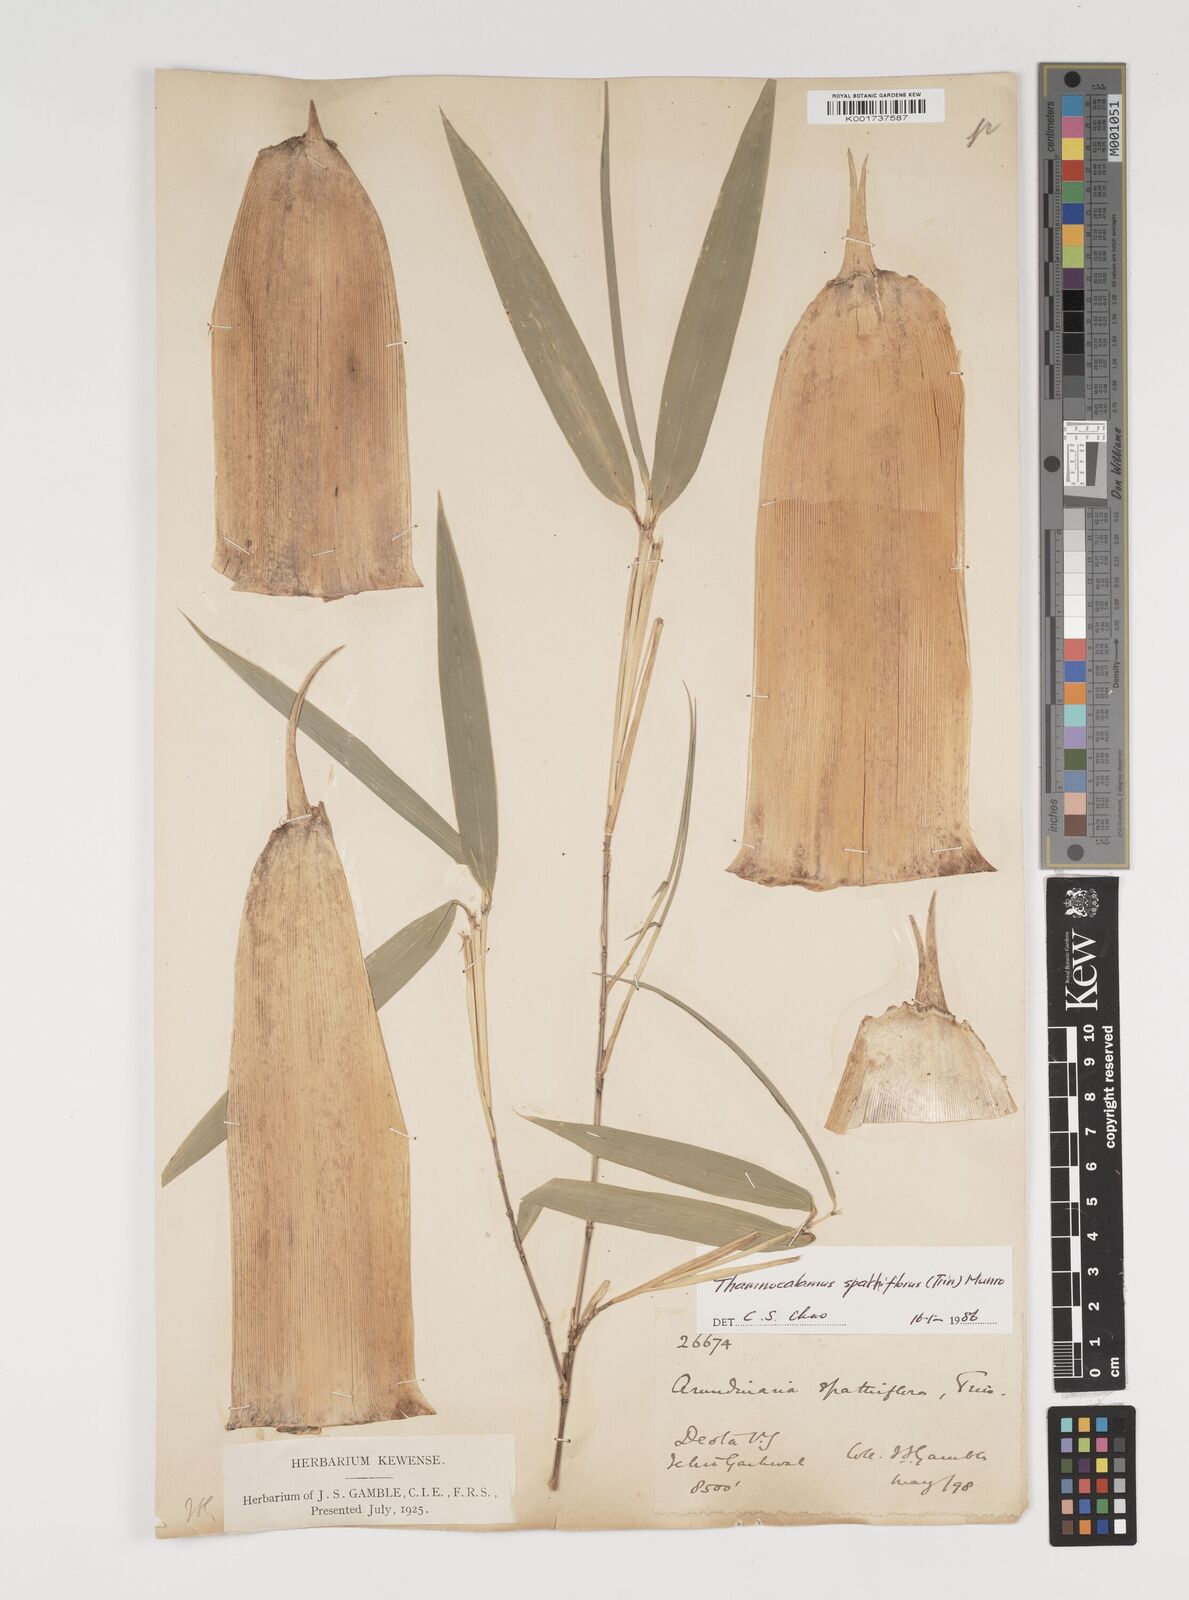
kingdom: Plantae
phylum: Tracheophyta
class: Liliopsida
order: Poales
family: Poaceae
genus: Thamnocalamus
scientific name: Thamnocalamus spathiflorus
